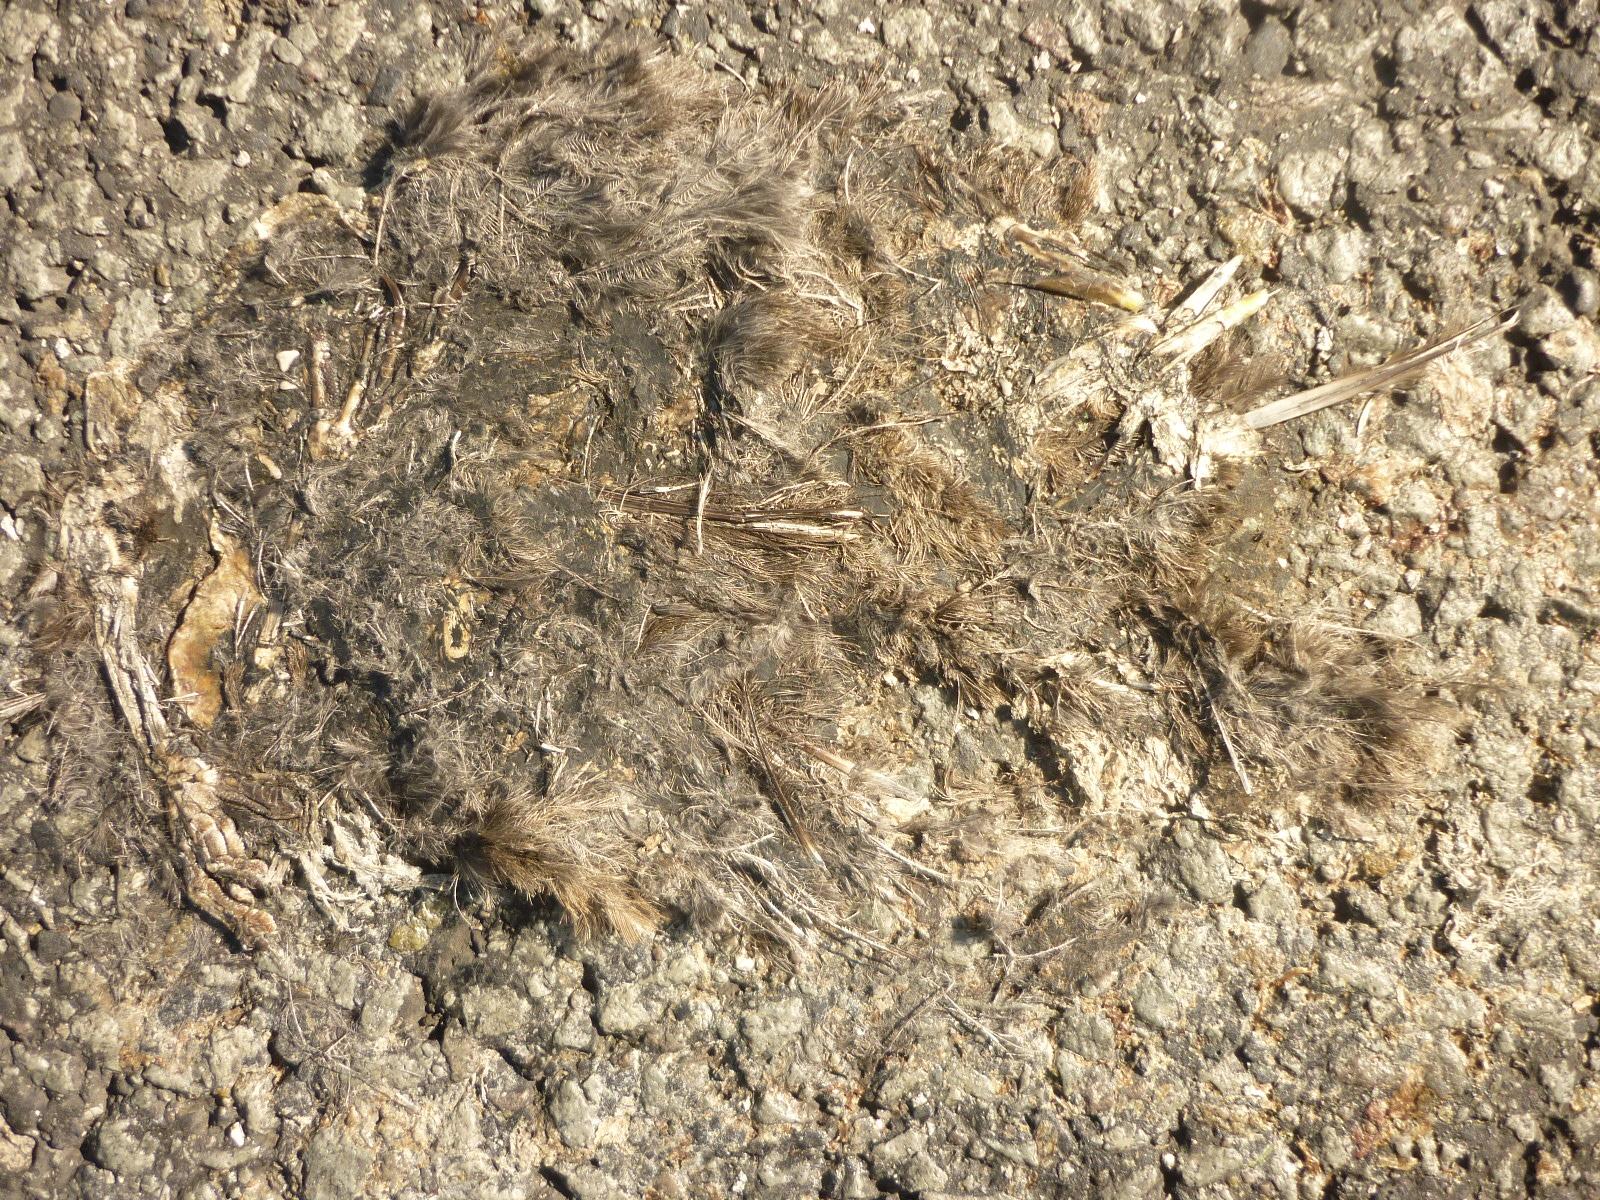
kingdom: Animalia
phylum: Chordata
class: Aves
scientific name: Aves
